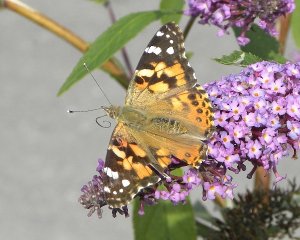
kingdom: Animalia
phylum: Arthropoda
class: Insecta
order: Lepidoptera
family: Nymphalidae
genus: Vanessa
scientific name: Vanessa cardui
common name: Painted Lady
